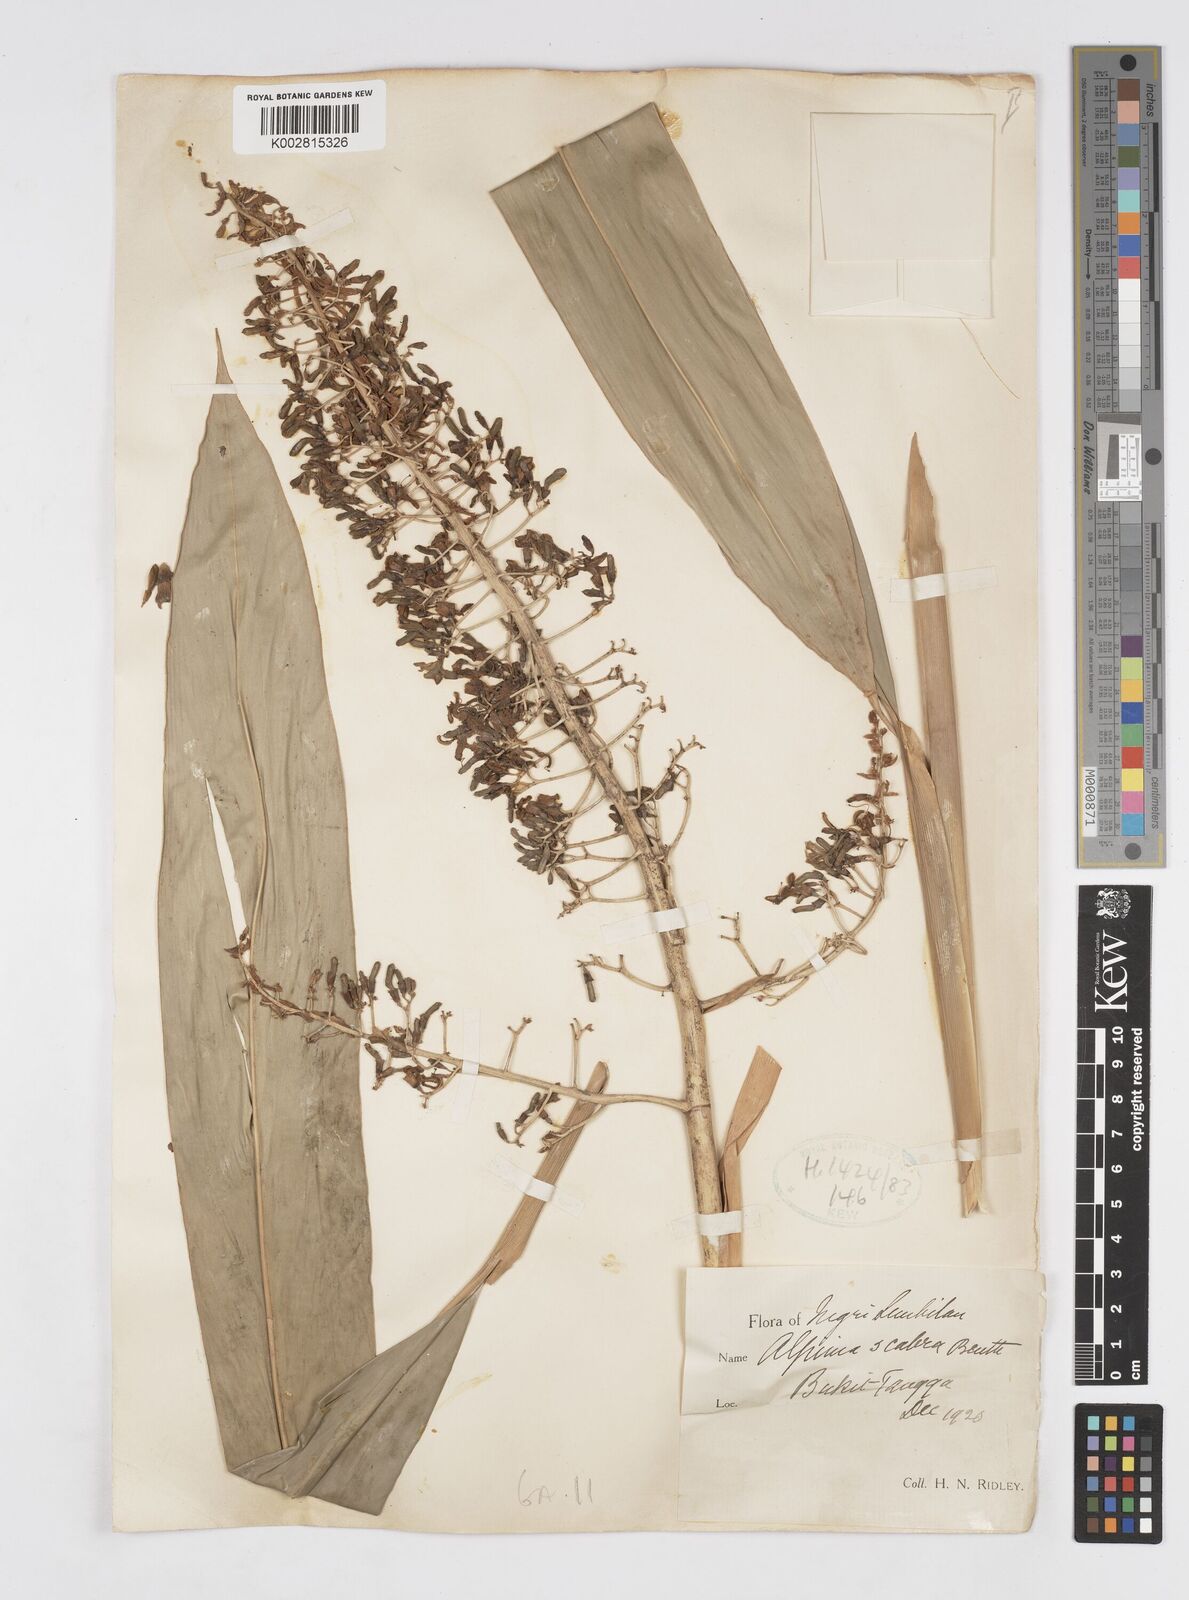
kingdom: Plantae
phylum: Tracheophyta
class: Liliopsida
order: Zingiberales
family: Zingiberaceae
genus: Alpinia
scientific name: Alpinia scabra
